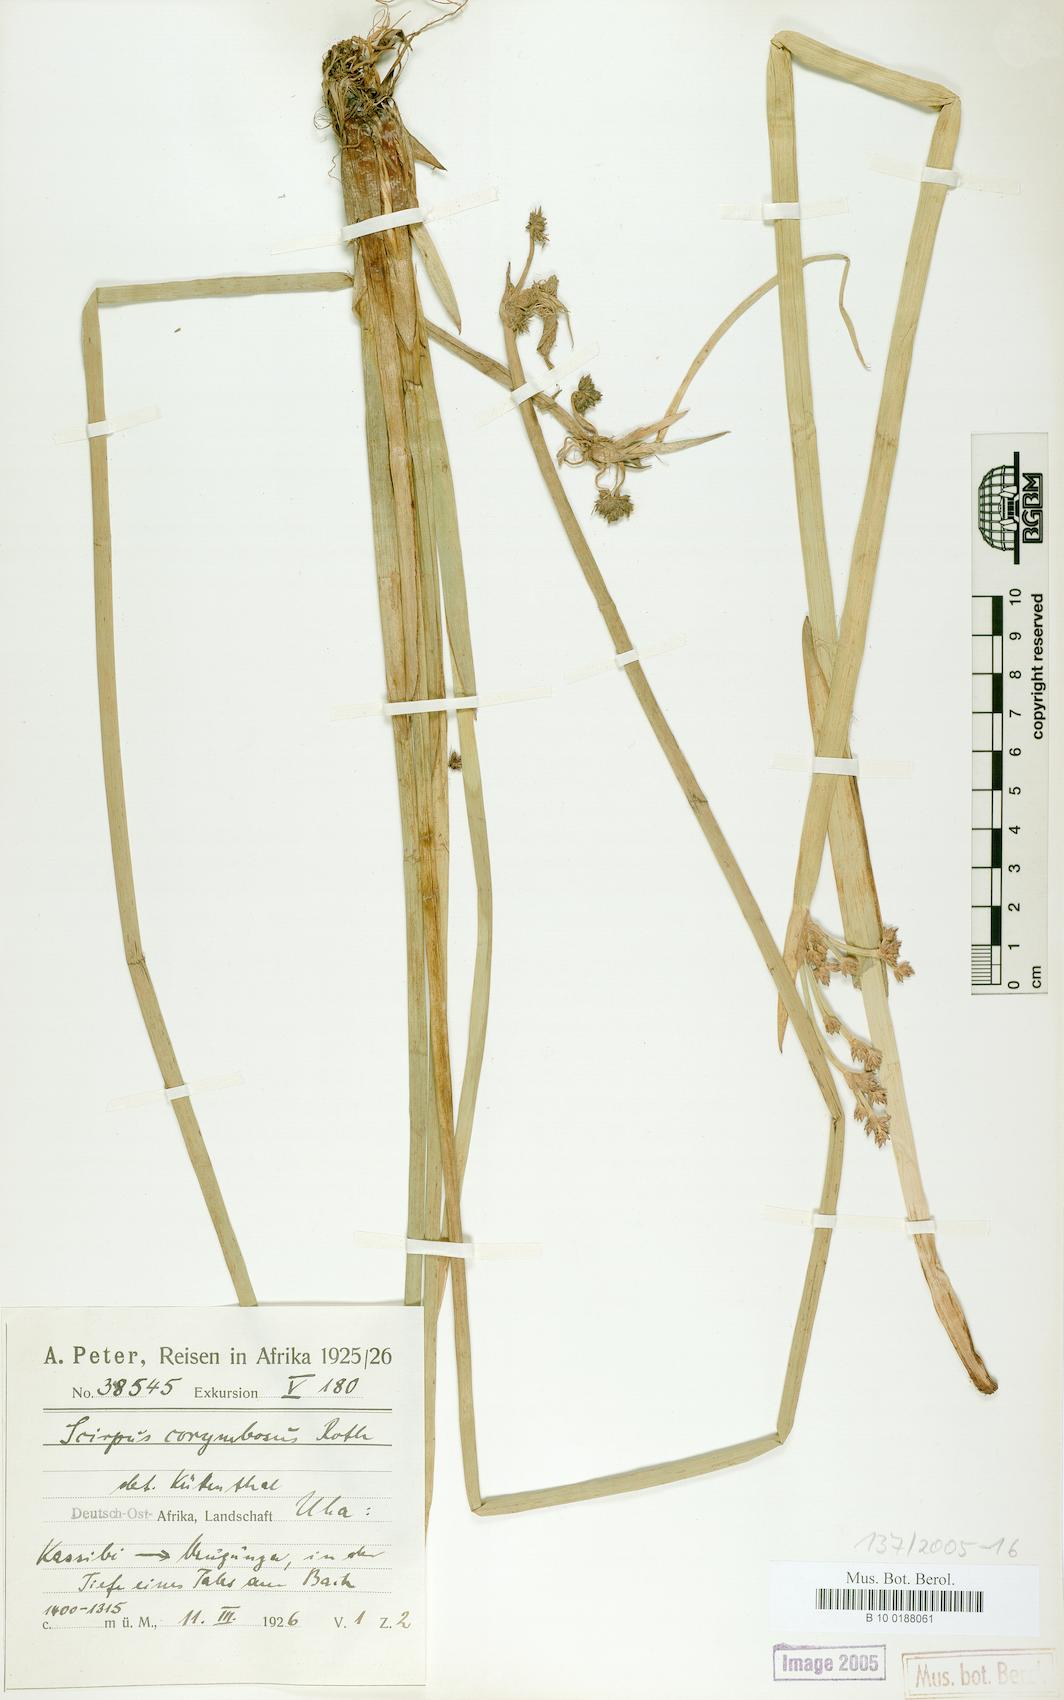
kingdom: Plantae
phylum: Tracheophyta
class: Liliopsida
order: Poales
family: Cyperaceae
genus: Schoenoplectiella
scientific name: Schoenoplectiella brachyceras
